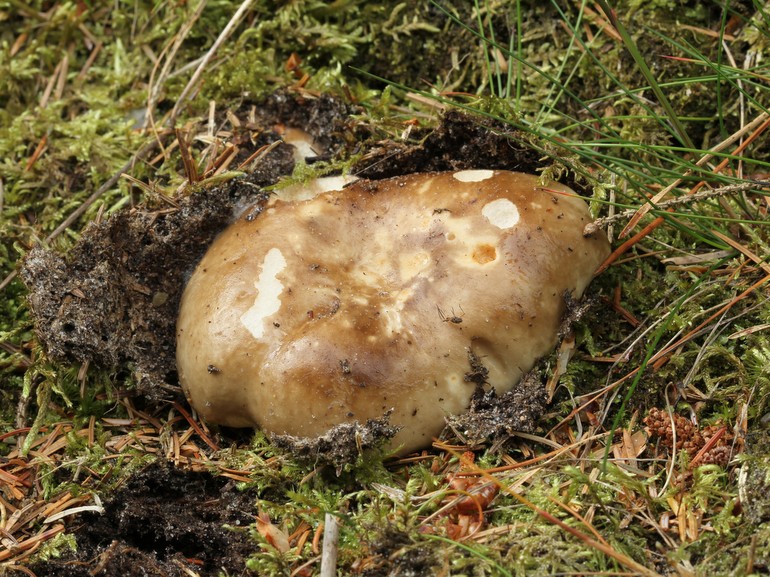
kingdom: Fungi
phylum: Basidiomycota
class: Agaricomycetes
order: Russulales
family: Russulaceae
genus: Russula
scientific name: Russula adusta
